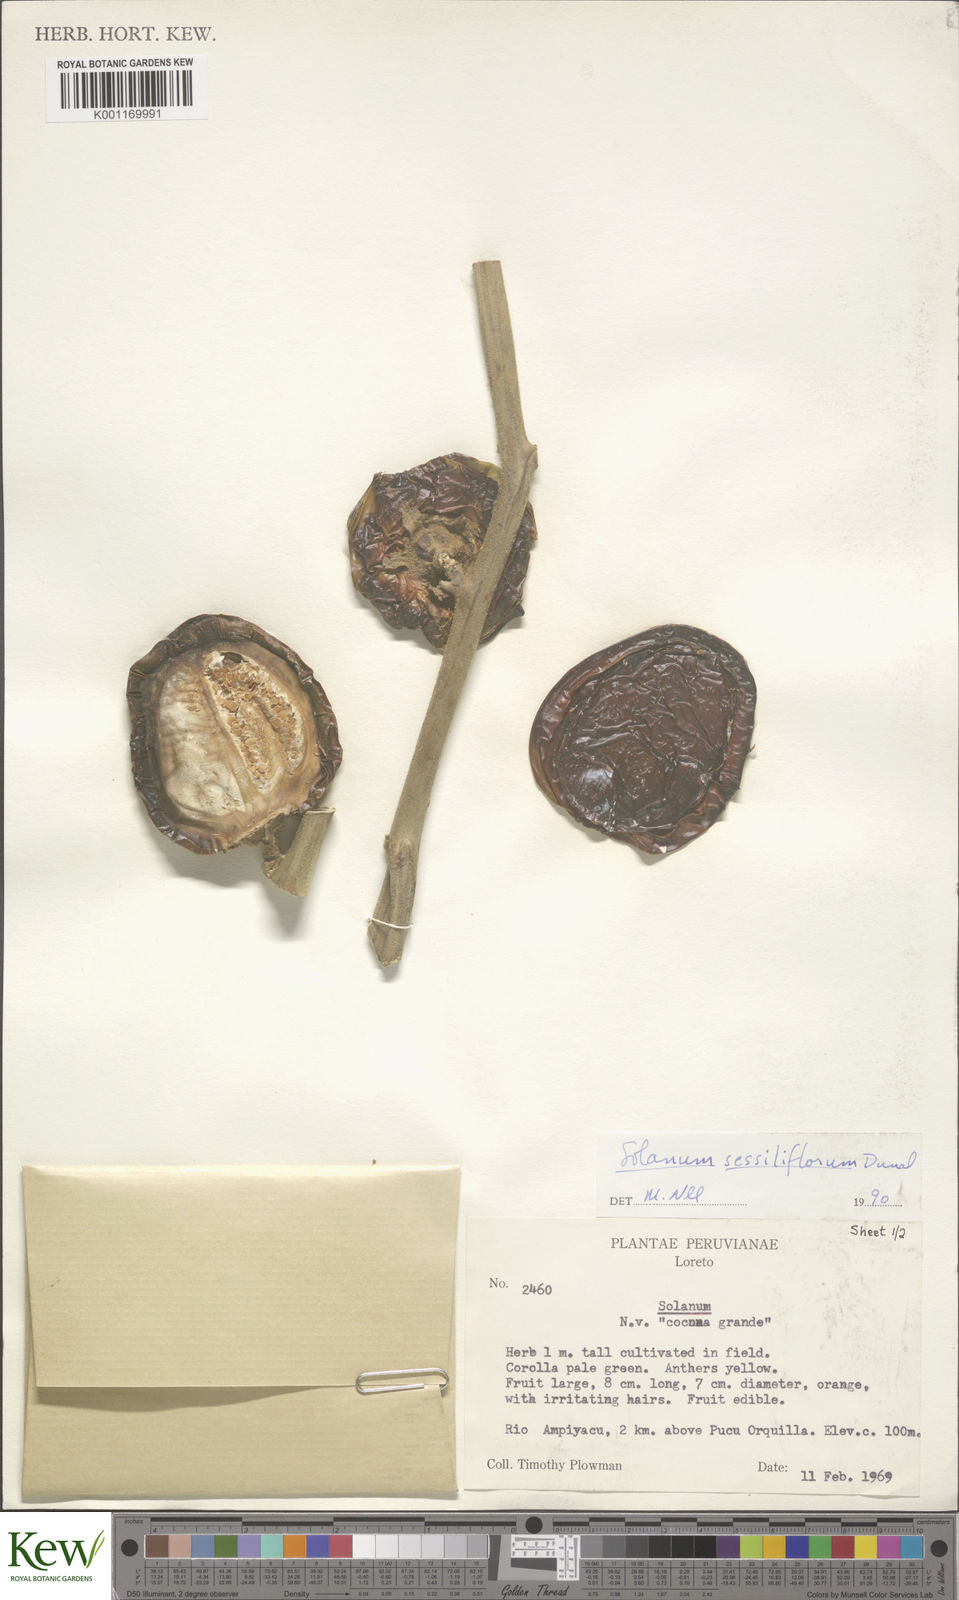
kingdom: Plantae
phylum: Tracheophyta
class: Magnoliopsida
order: Solanales
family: Solanaceae
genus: Solanum
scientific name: Solanum sessiliflorum
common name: Orinoco-apple
